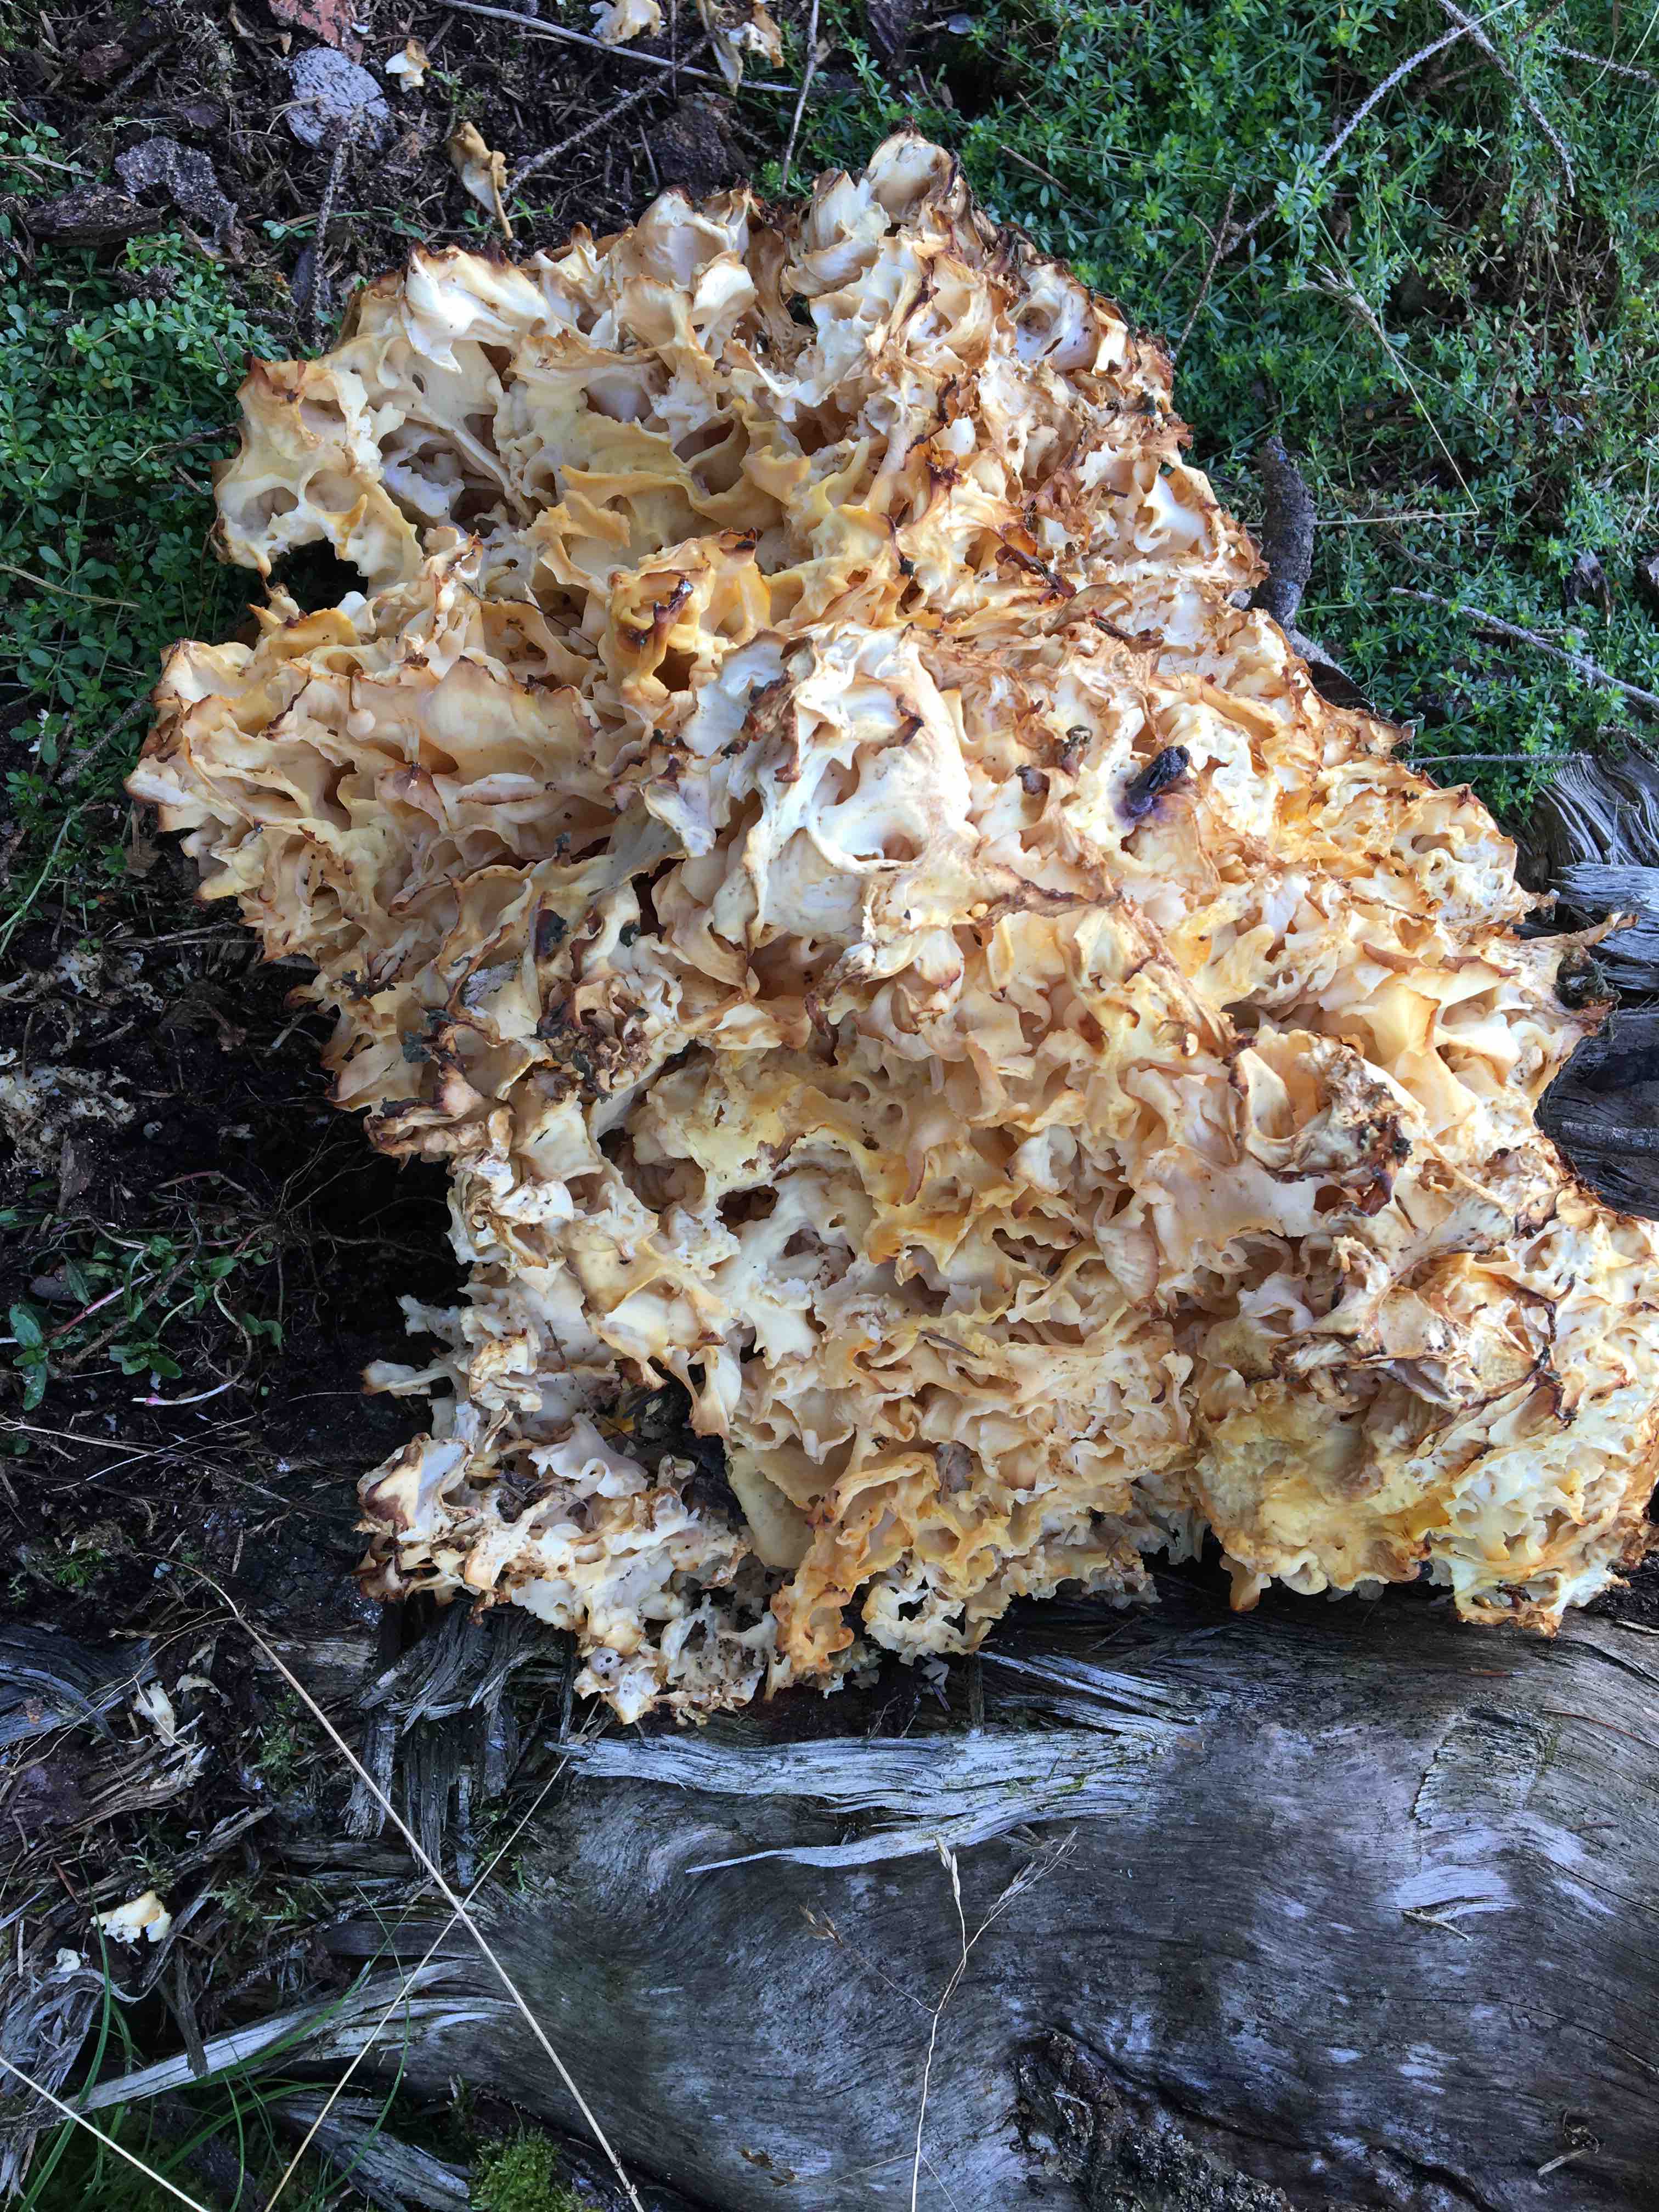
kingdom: Fungi
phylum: Basidiomycota
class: Agaricomycetes
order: Polyporales
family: Sparassidaceae
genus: Sparassis
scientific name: Sparassis crispa
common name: kruset blomkålssvamp
